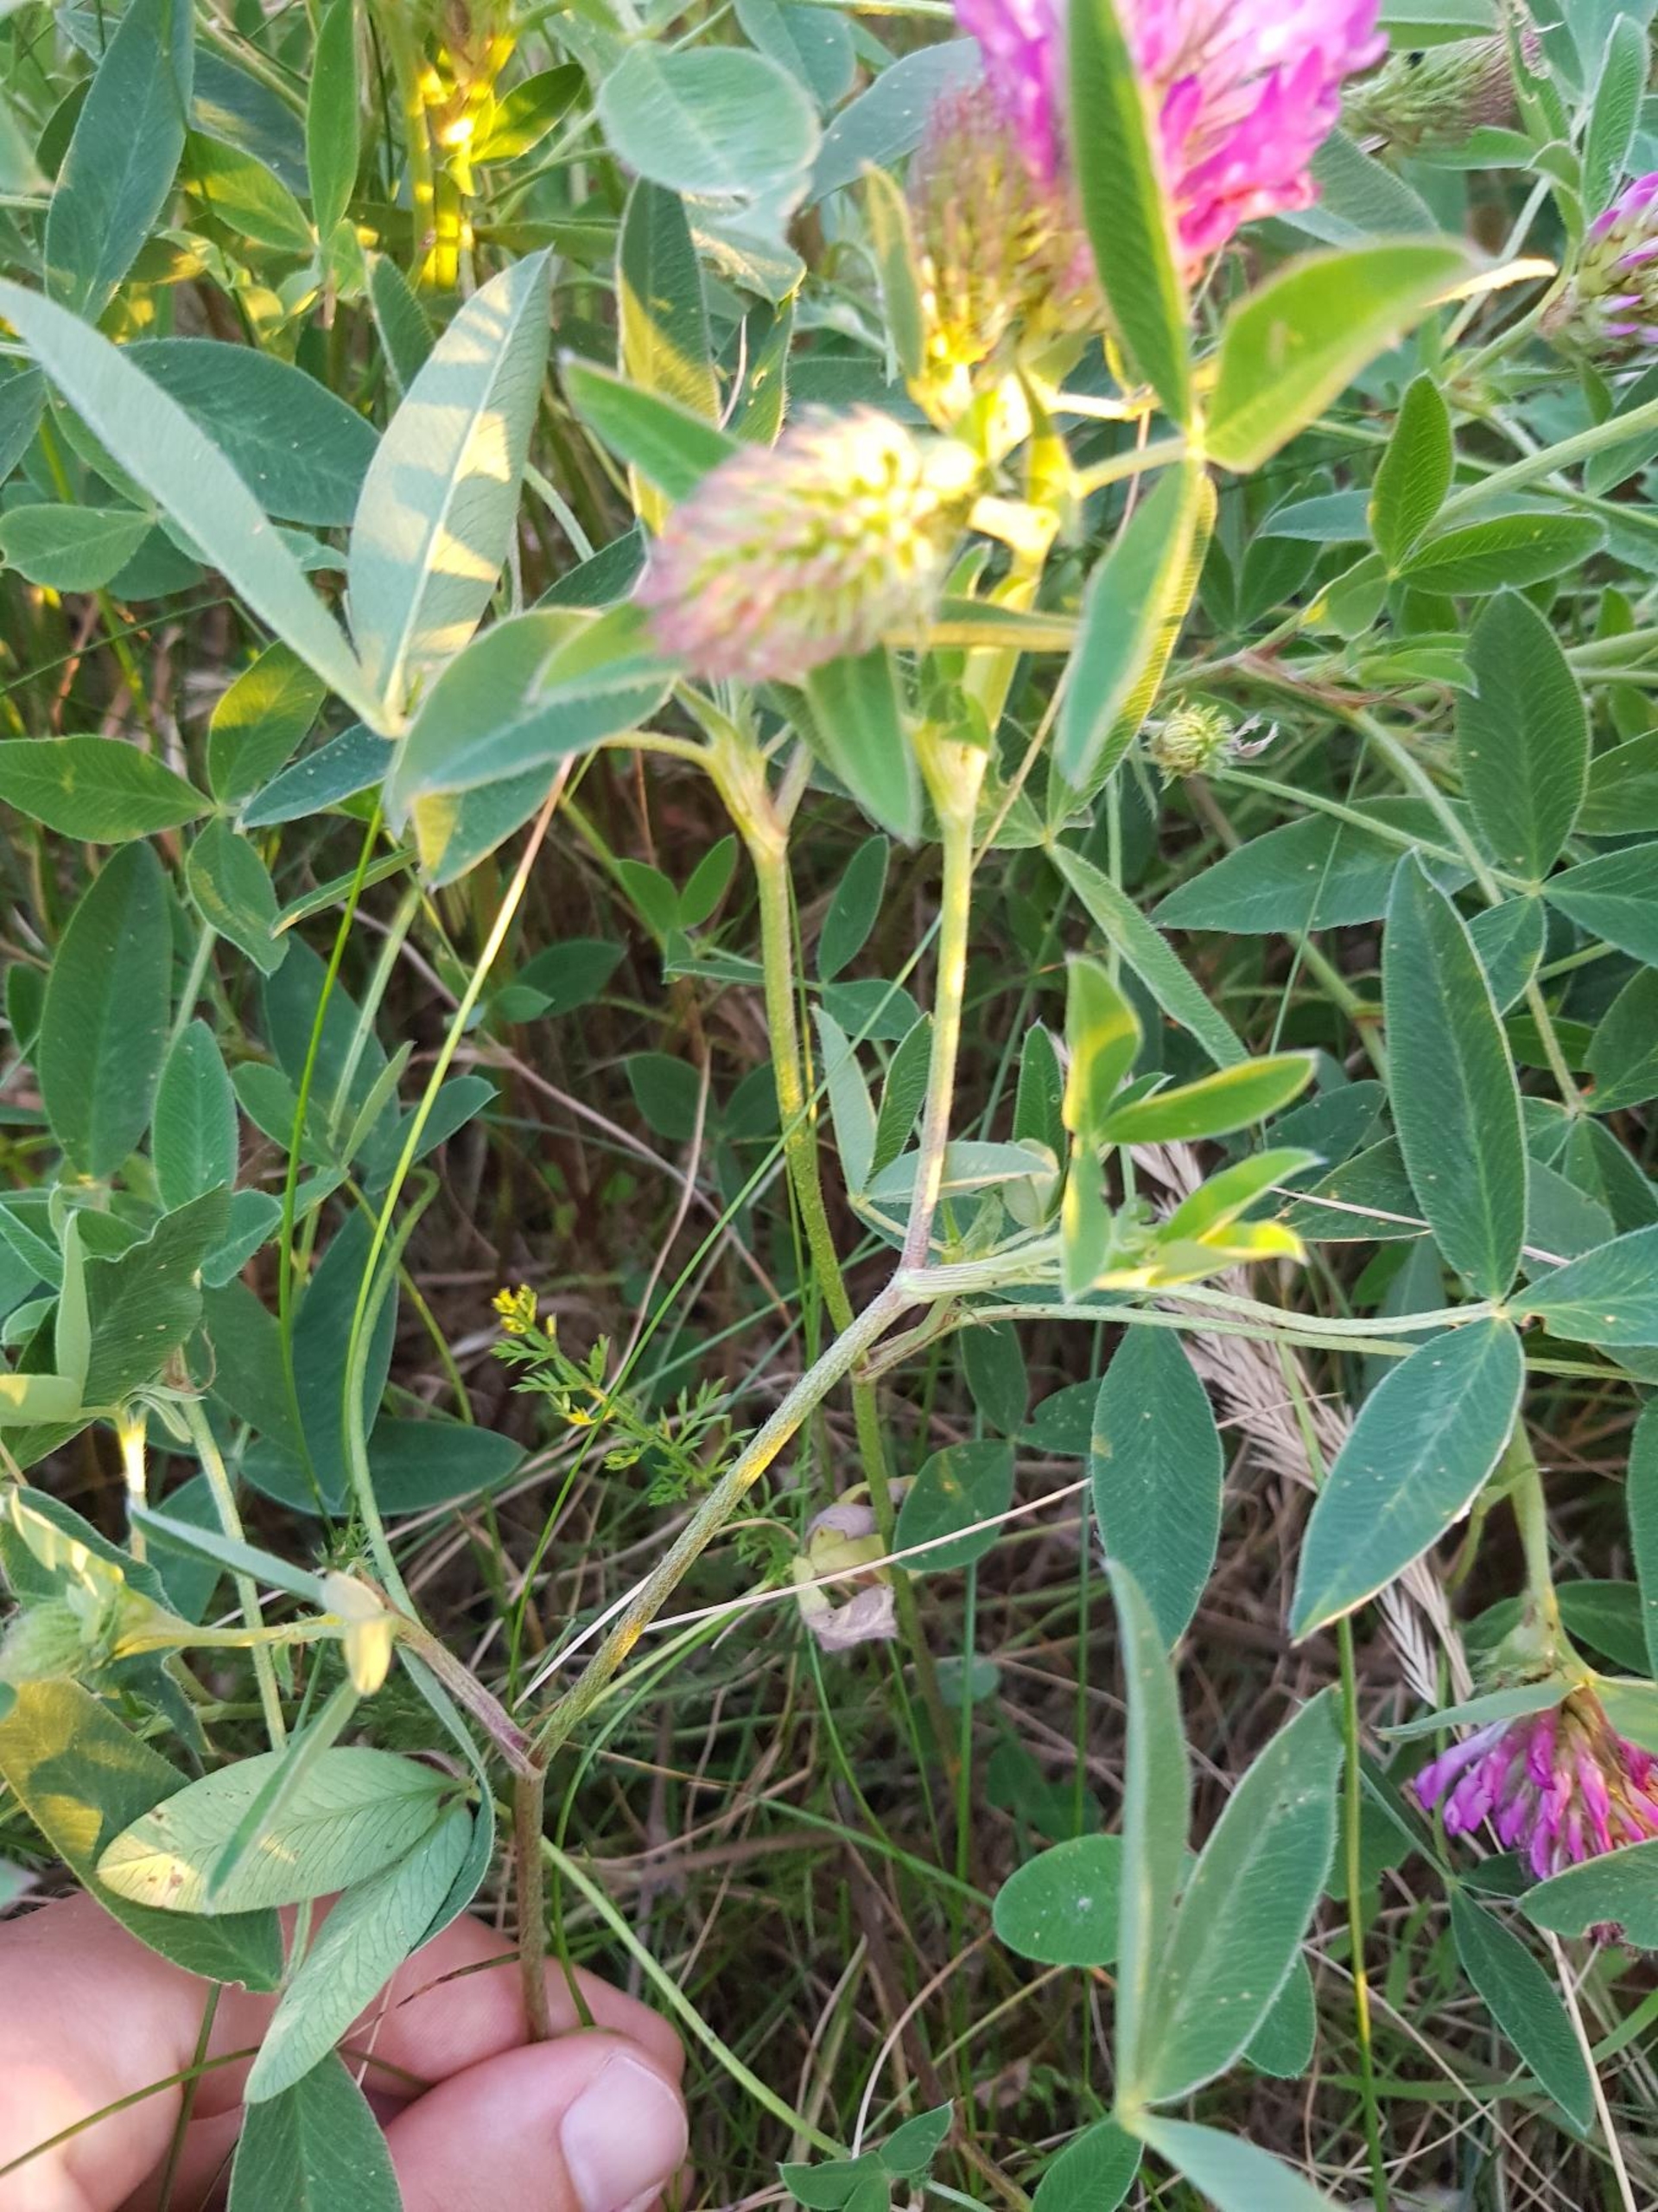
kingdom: Plantae
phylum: Tracheophyta
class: Magnoliopsida
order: Fabales
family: Fabaceae
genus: Trifolium
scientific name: Trifolium medium
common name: Bugtet kløver
